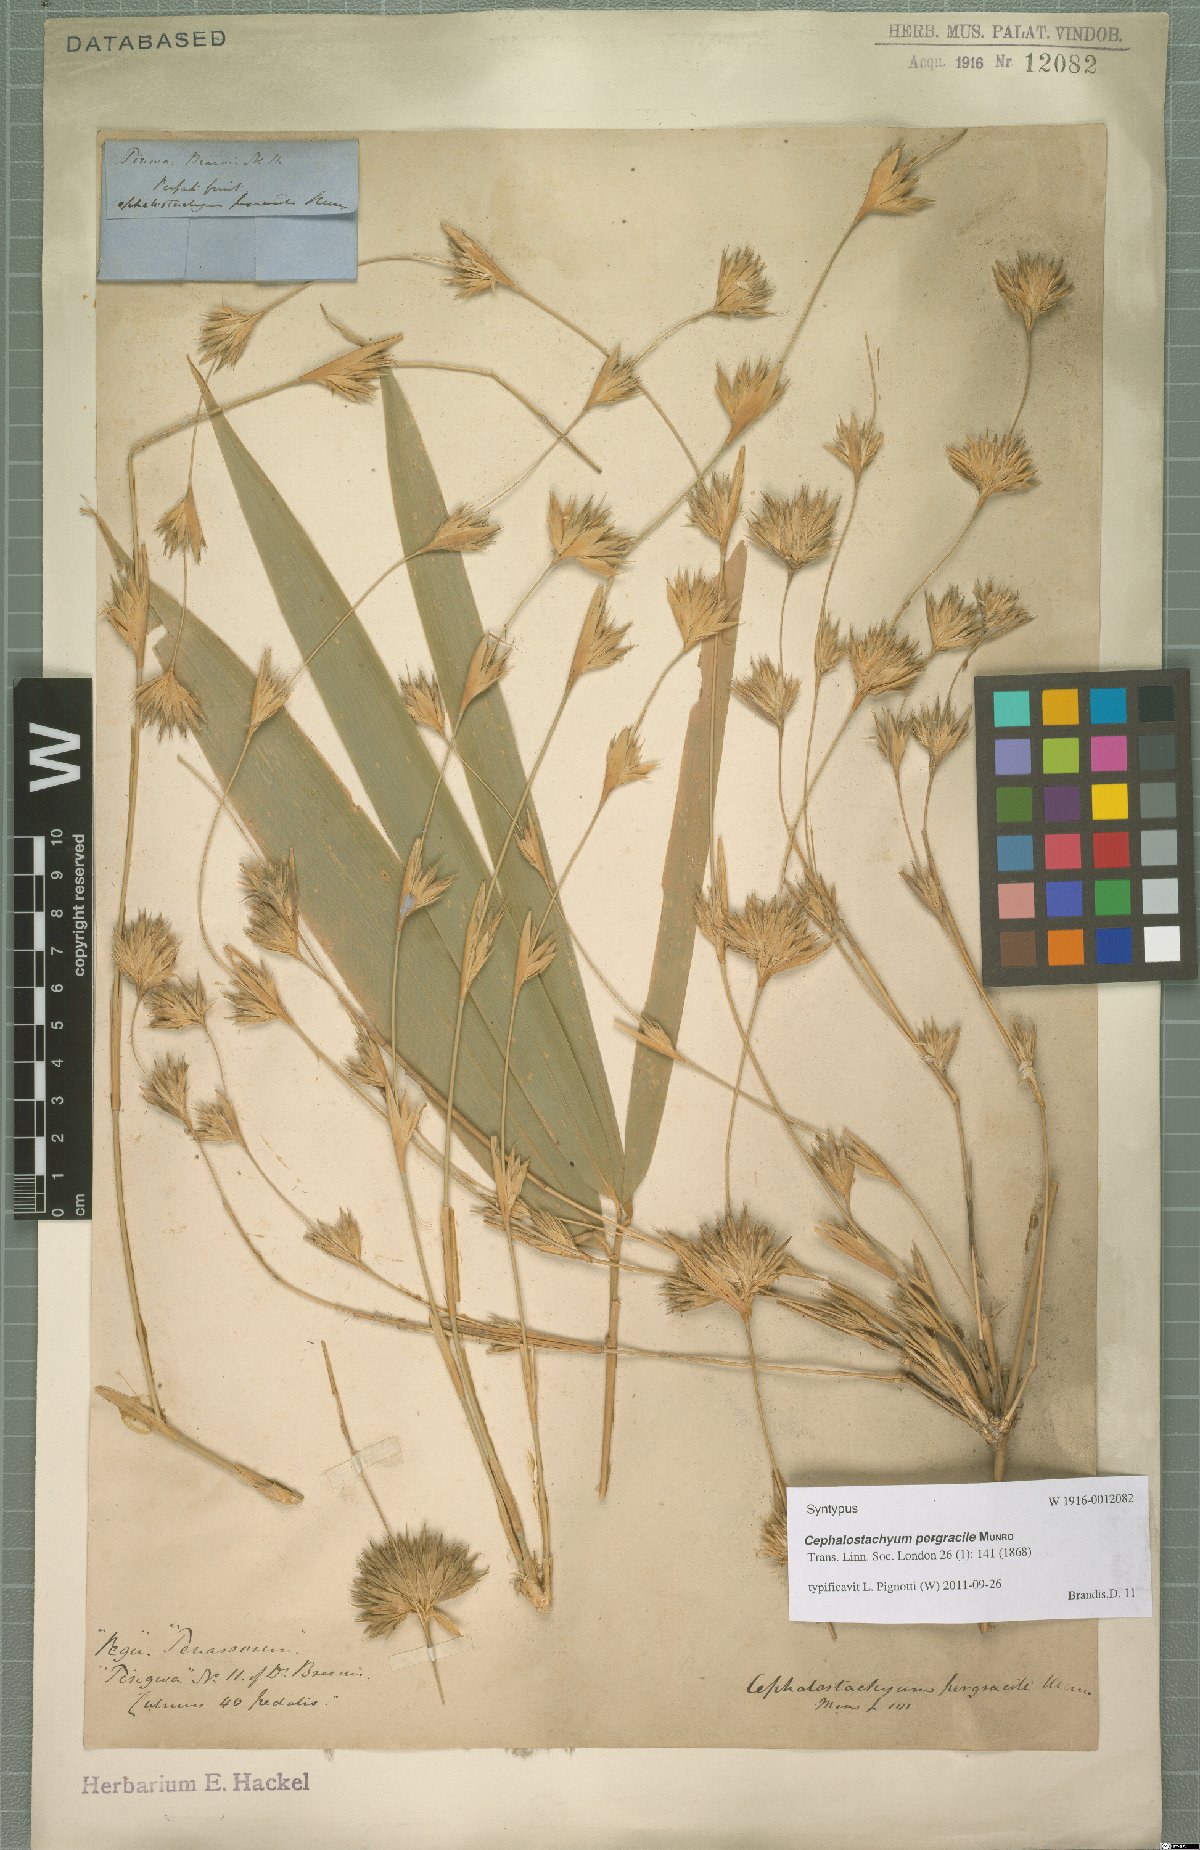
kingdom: Plantae
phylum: Tracheophyta
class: Liliopsida
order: Poales
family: Poaceae
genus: Schizostachyum
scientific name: Schizostachyum pergracile
